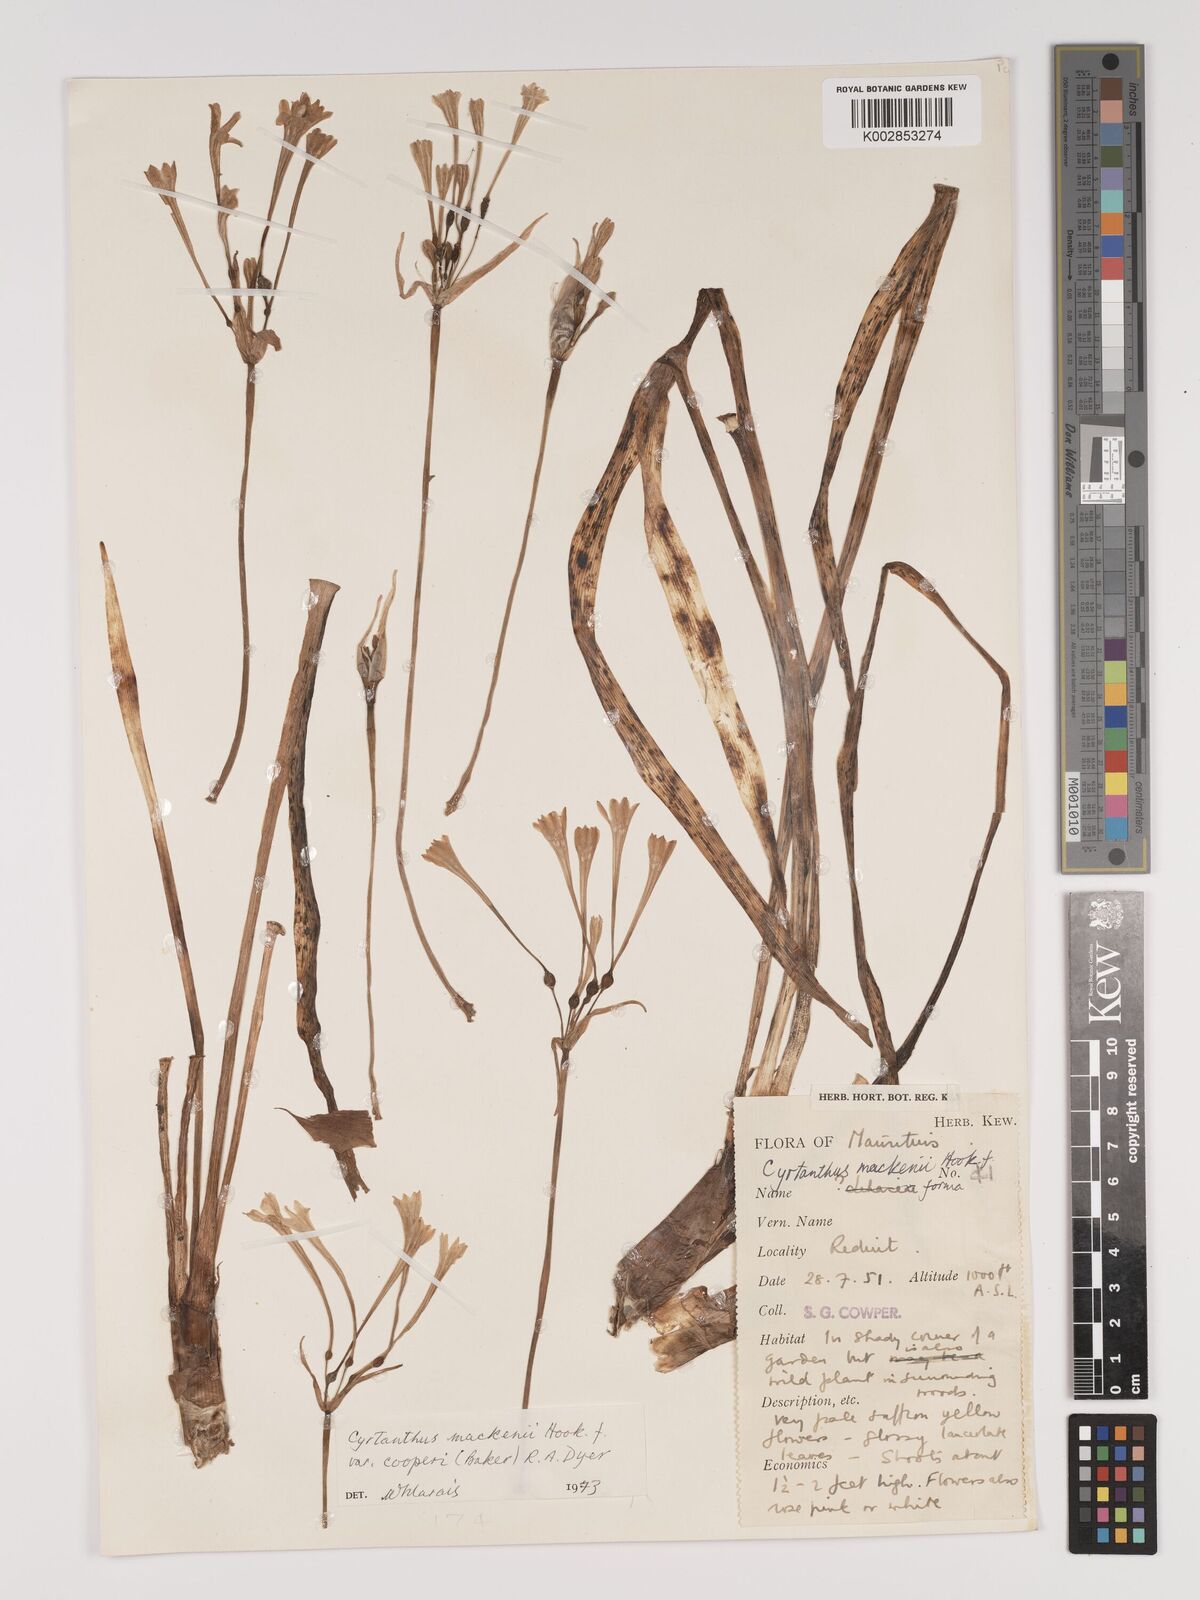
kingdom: Plantae
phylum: Tracheophyta
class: Liliopsida
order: Asparagales
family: Amaryllidaceae
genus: Cyrtanthus
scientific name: Cyrtanthus mackenii
